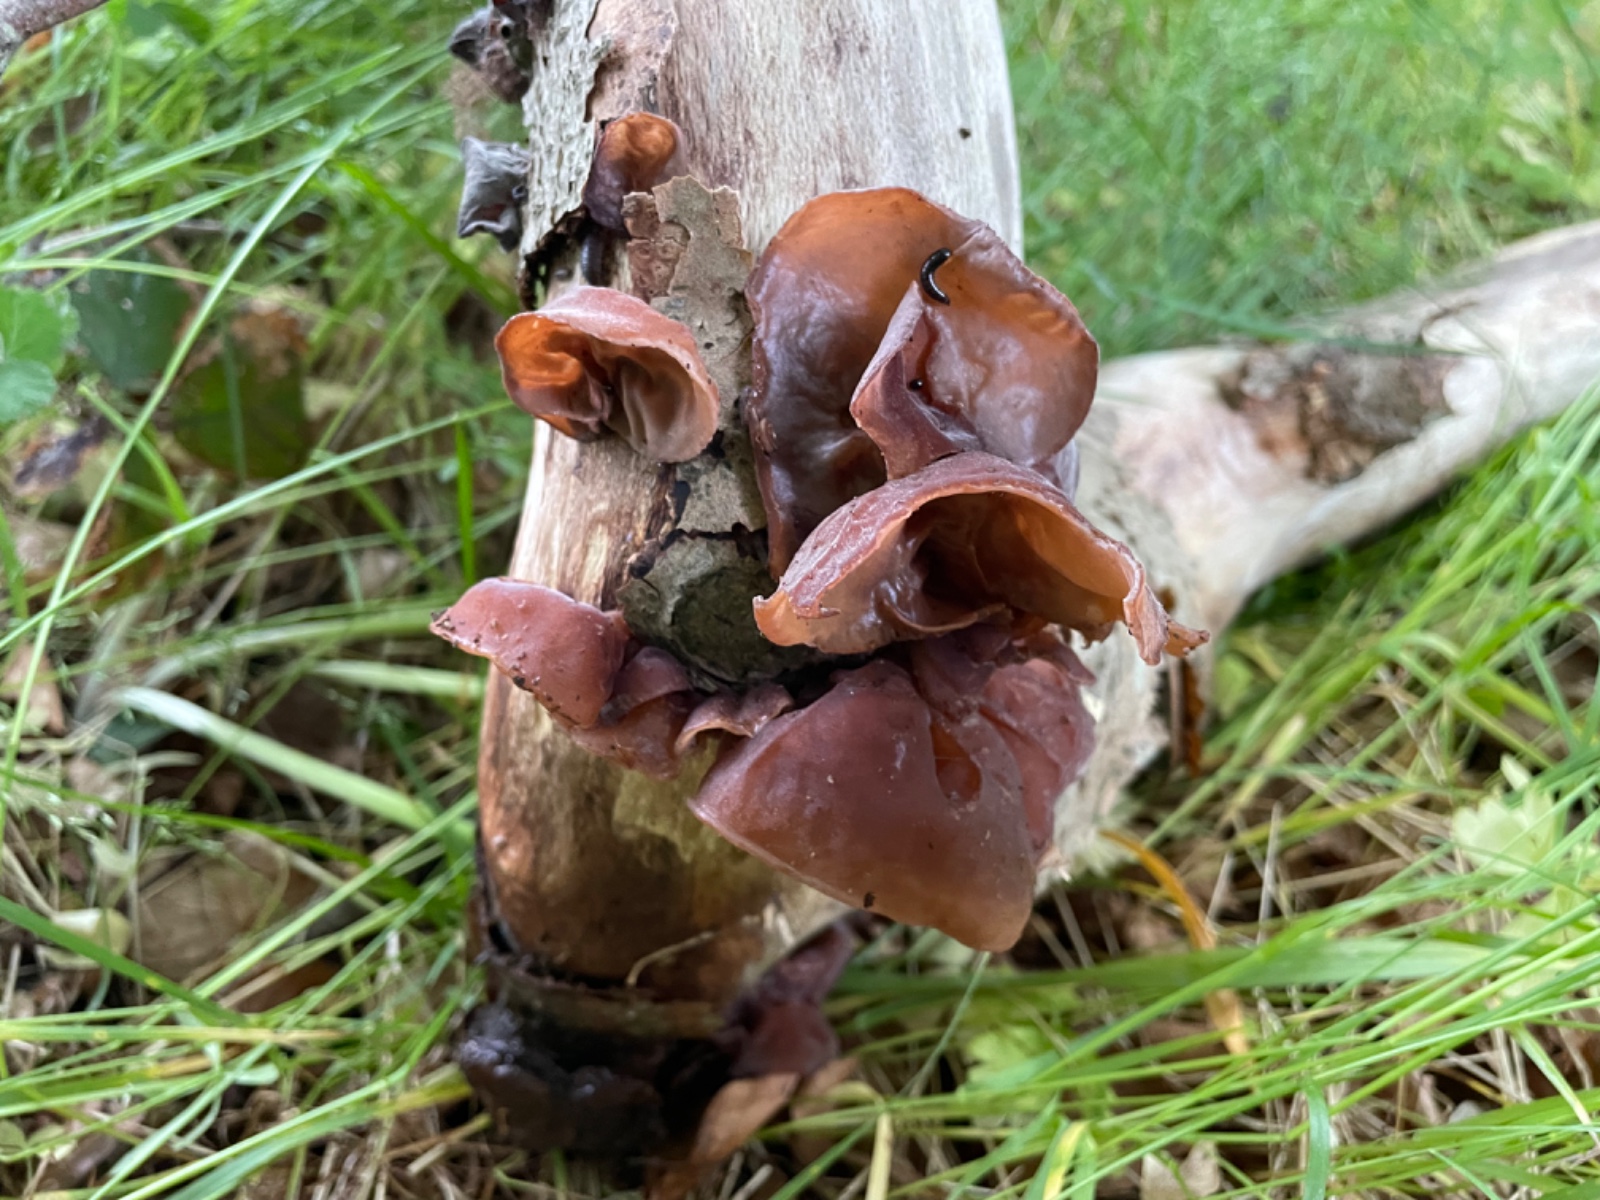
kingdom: Fungi
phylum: Basidiomycota
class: Agaricomycetes
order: Auriculariales
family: Auriculariaceae
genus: Auricularia
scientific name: Auricularia auricula-judae
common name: almindelig judasøre
